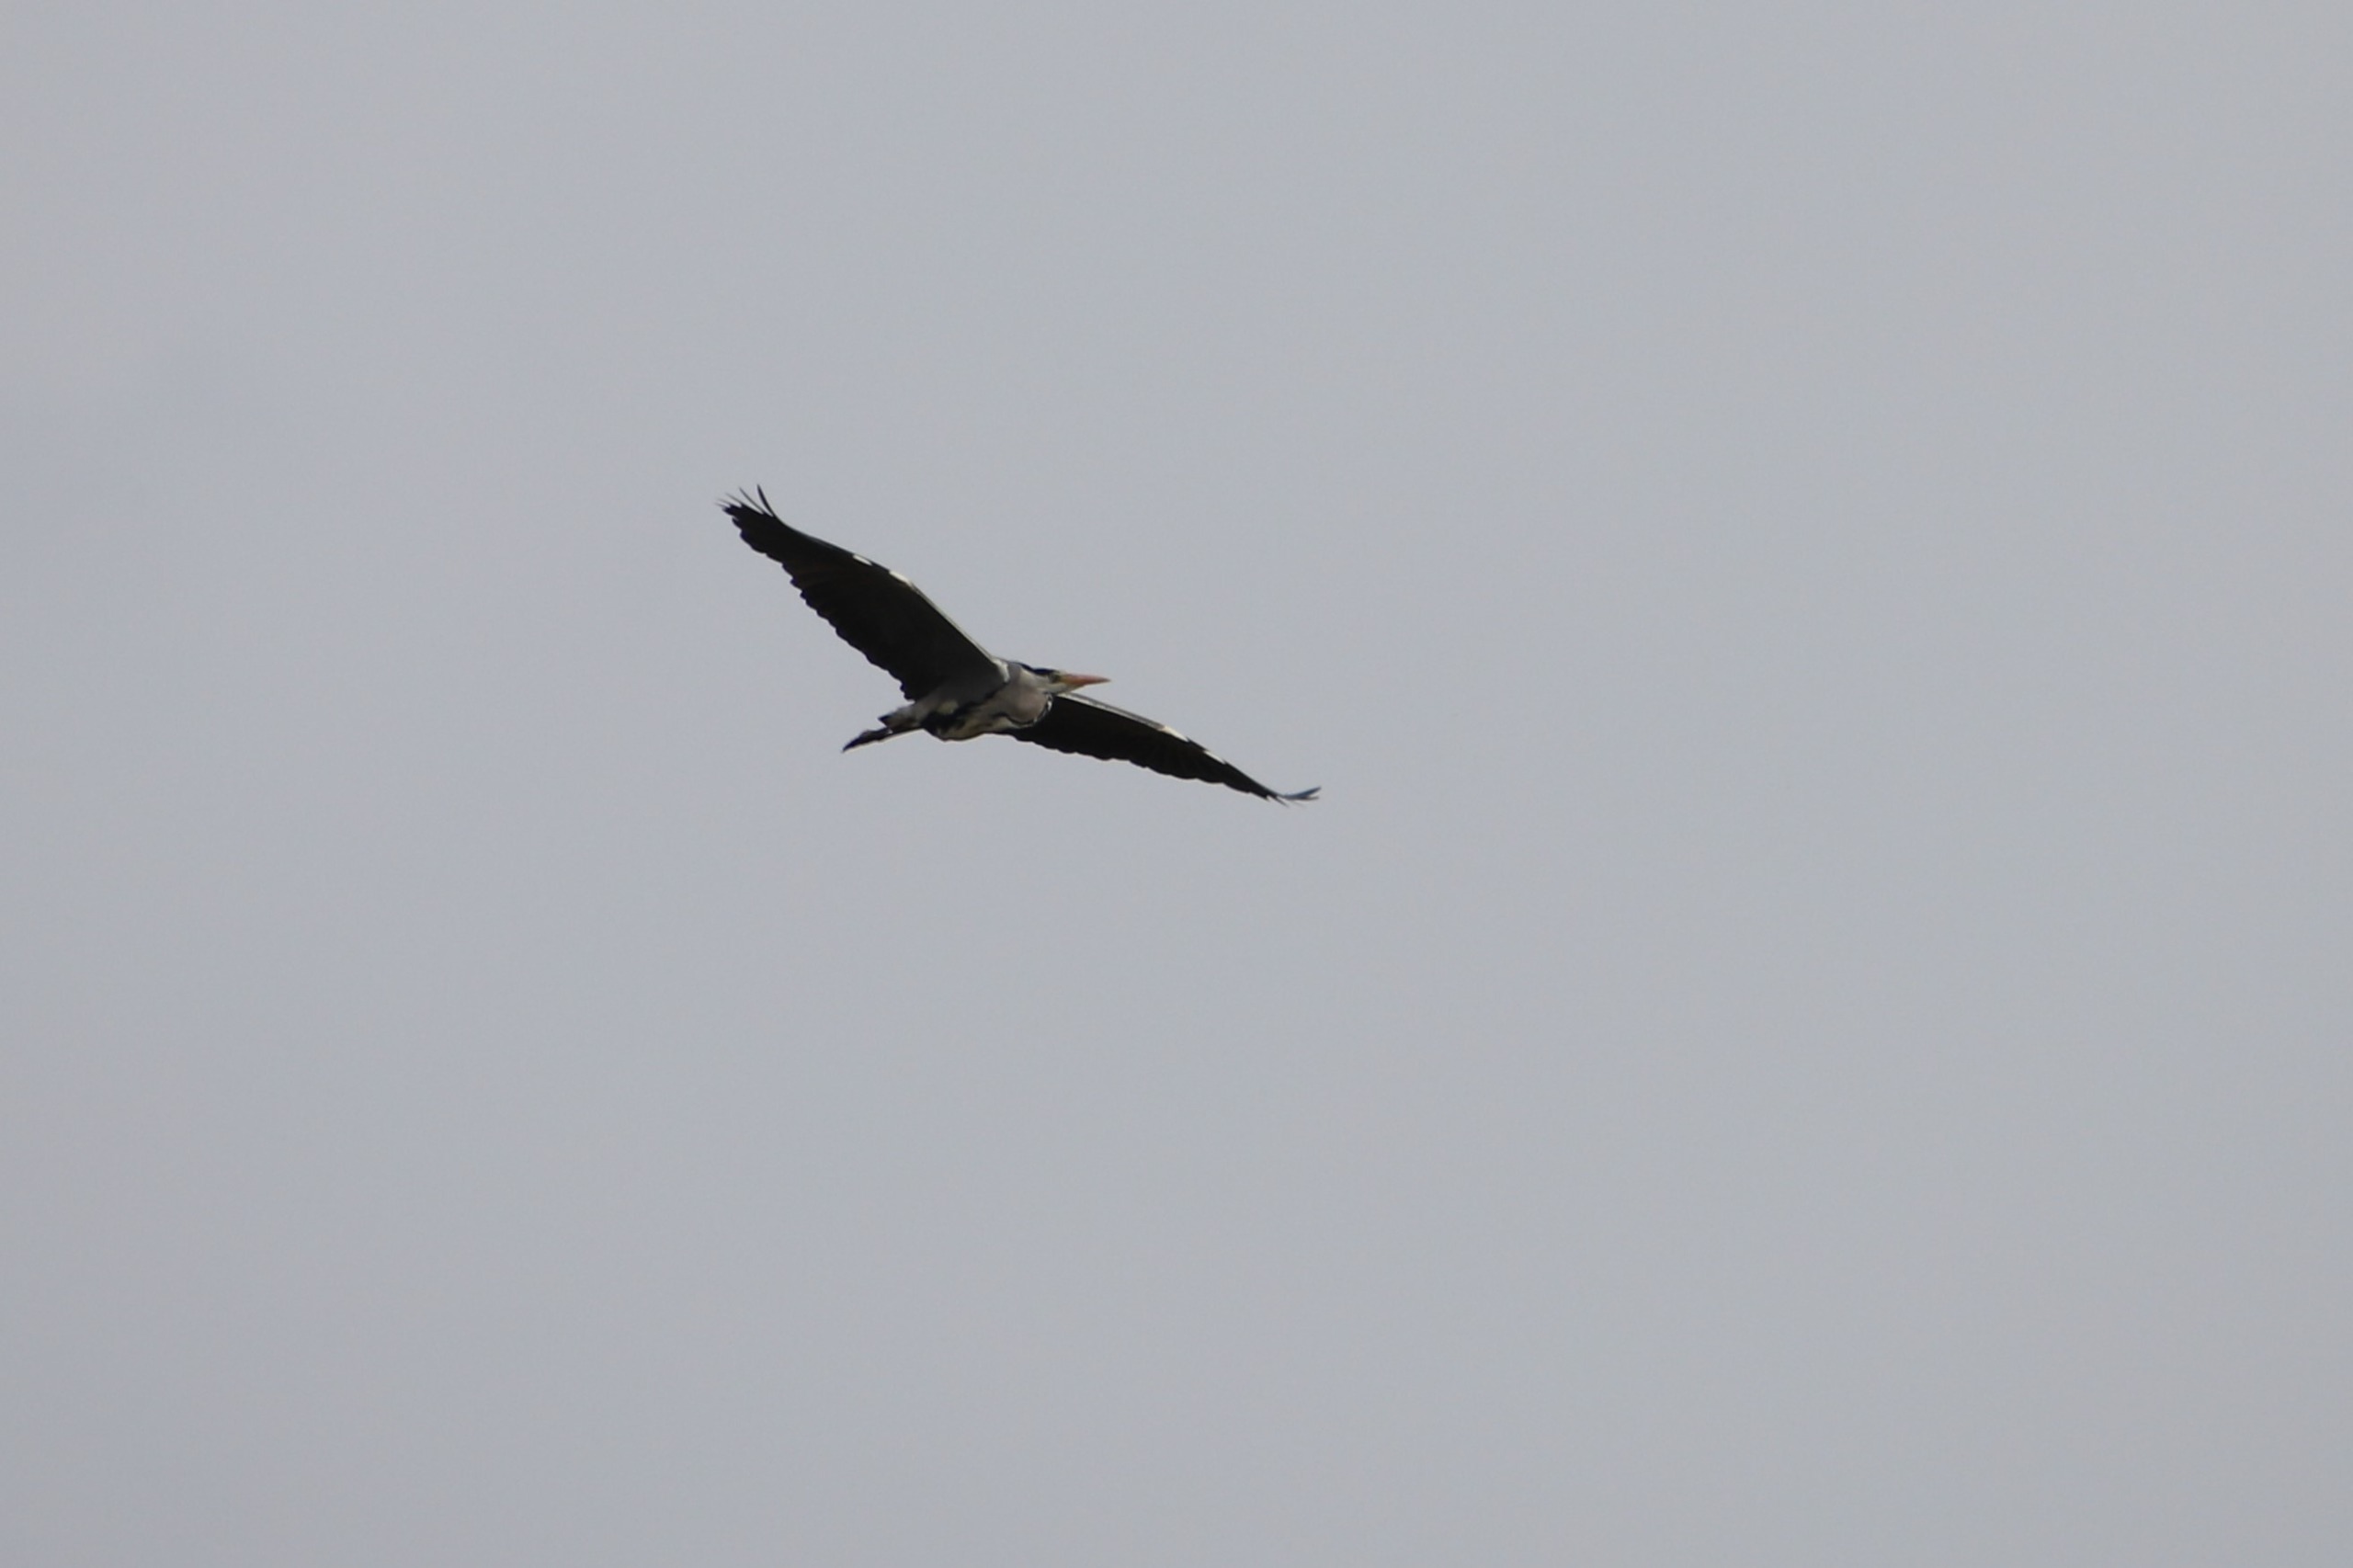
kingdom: Animalia
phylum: Chordata
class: Aves
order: Pelecaniformes
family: Ardeidae
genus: Ardea
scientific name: Ardea cinerea
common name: Fiskehejre
